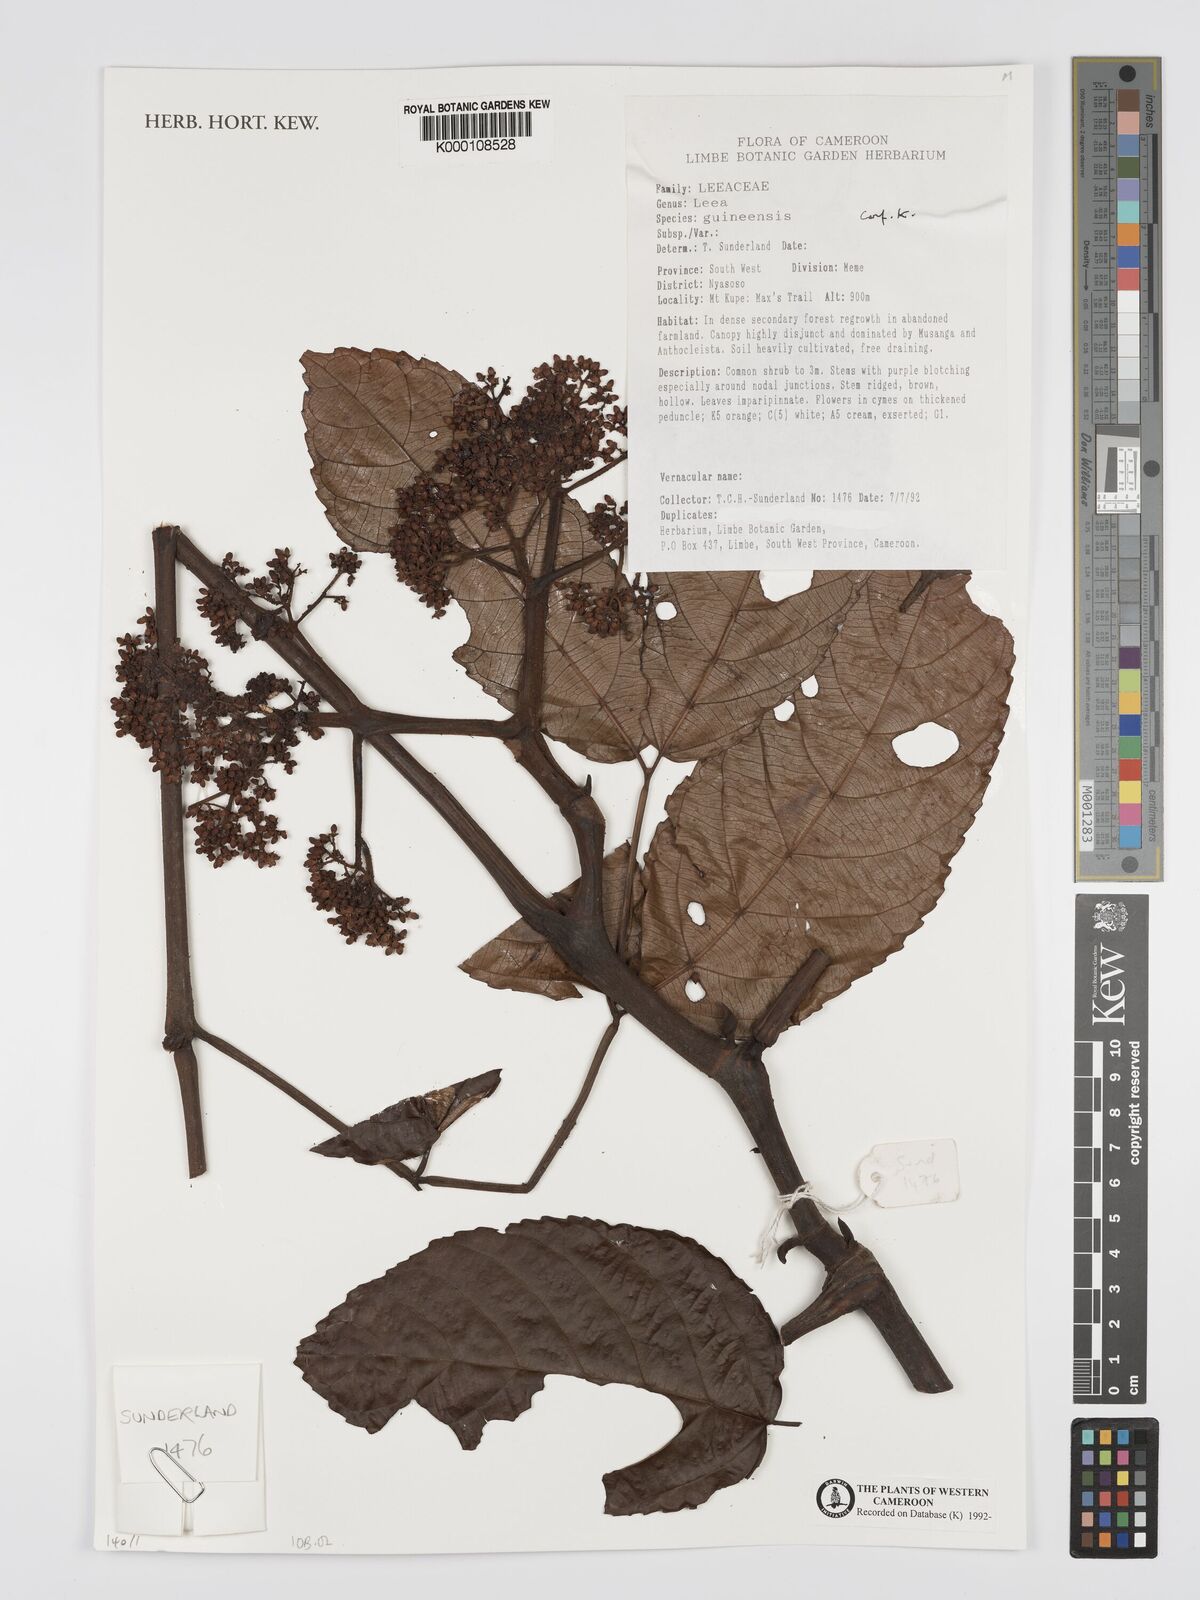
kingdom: Plantae
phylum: Tracheophyta
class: Magnoliopsida
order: Vitales
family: Vitaceae
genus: Leea
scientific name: Leea guineensis
